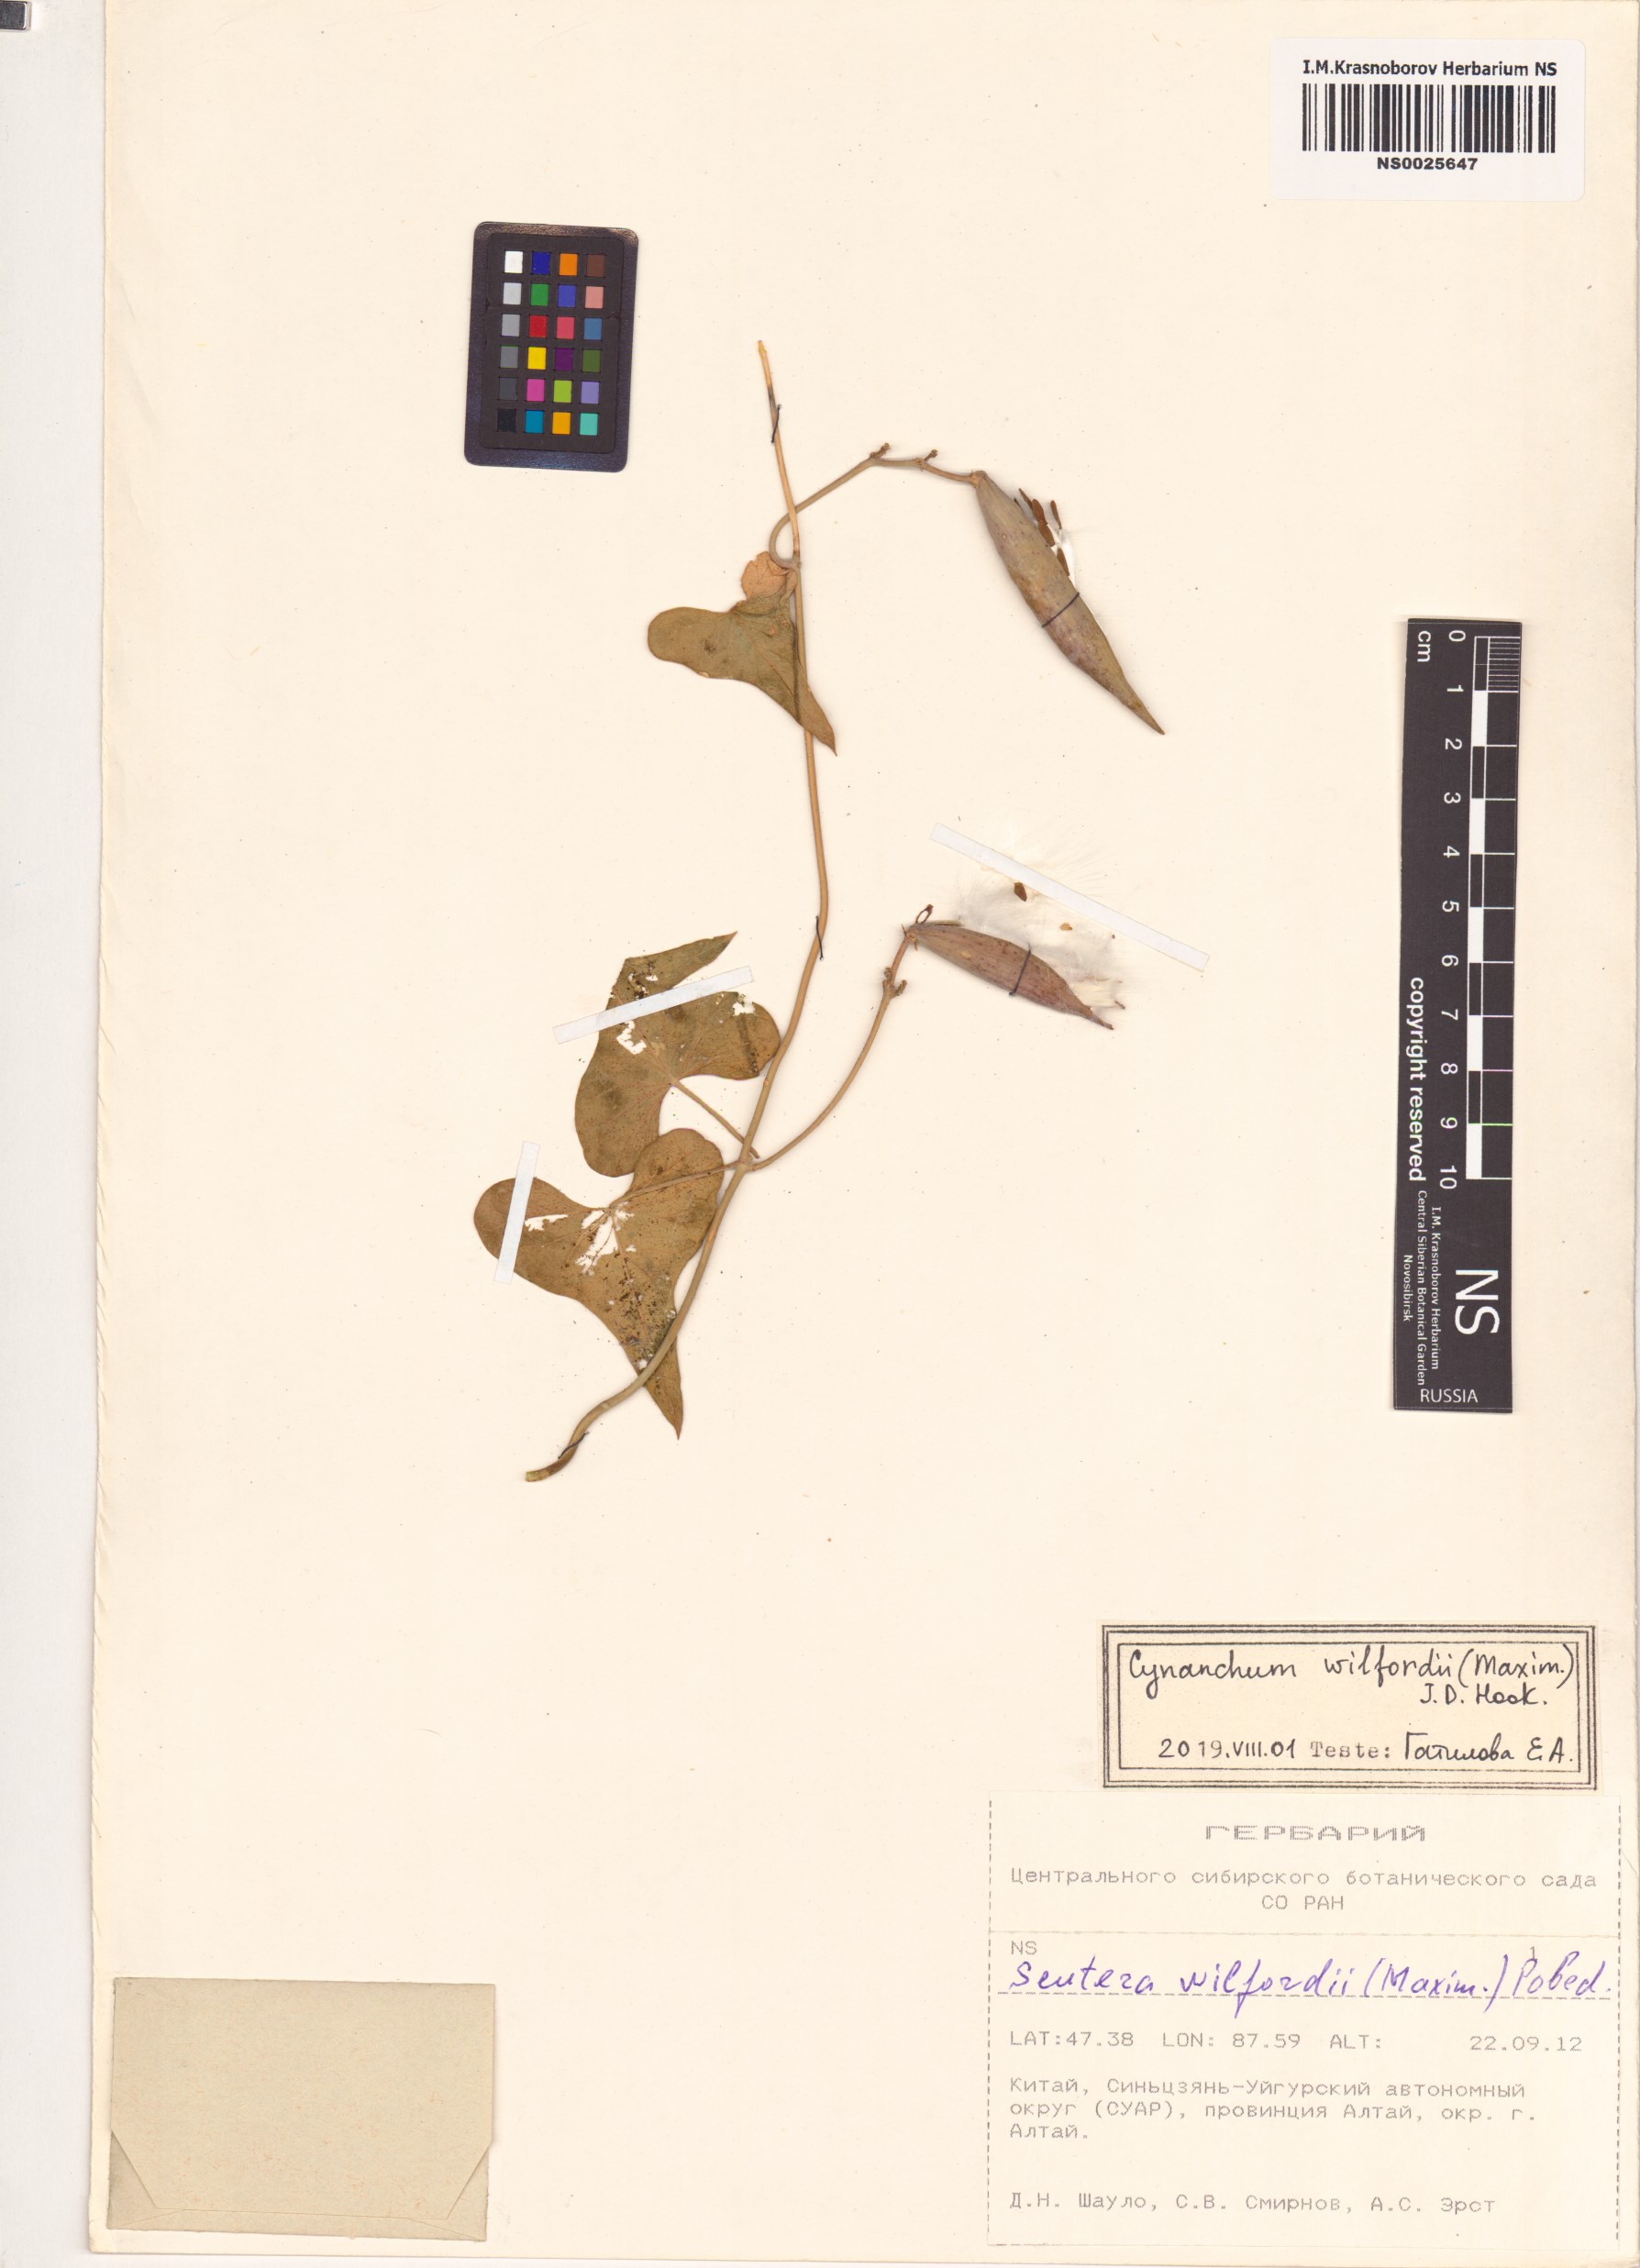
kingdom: Plantae
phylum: Tracheophyta
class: Magnoliopsida
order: Gentianales
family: Apocynaceae
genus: Cynanchum
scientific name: Cynanchum wilfordii
